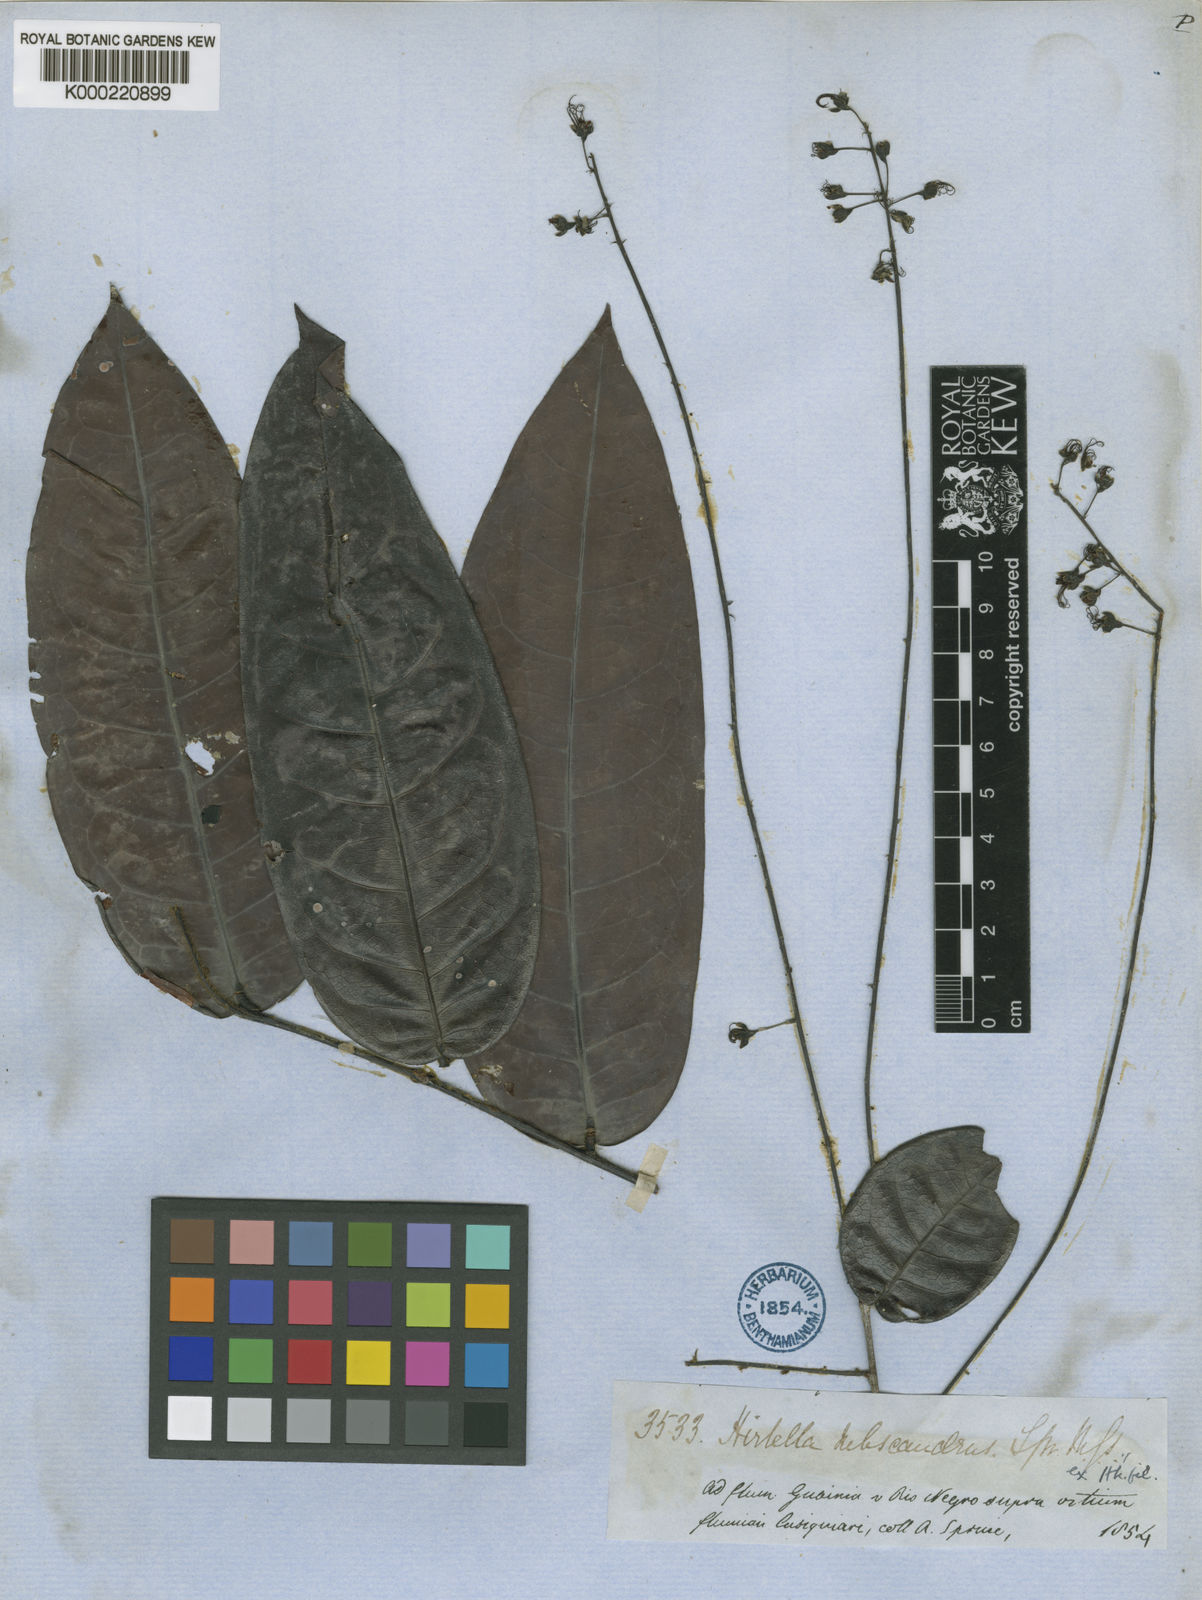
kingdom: Plantae
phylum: Tracheophyta
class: Magnoliopsida
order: Malpighiales
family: Chrysobalanaceae
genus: Hirtella
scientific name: Hirtella subscandens
